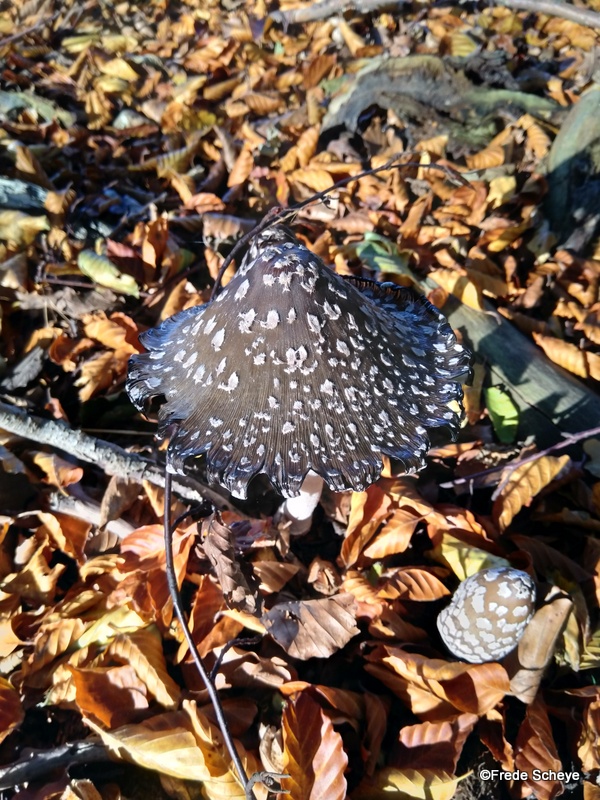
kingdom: Fungi
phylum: Basidiomycota
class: Agaricomycetes
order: Agaricales
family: Psathyrellaceae
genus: Coprinopsis
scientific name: Coprinopsis picacea
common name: skade-blækhat
